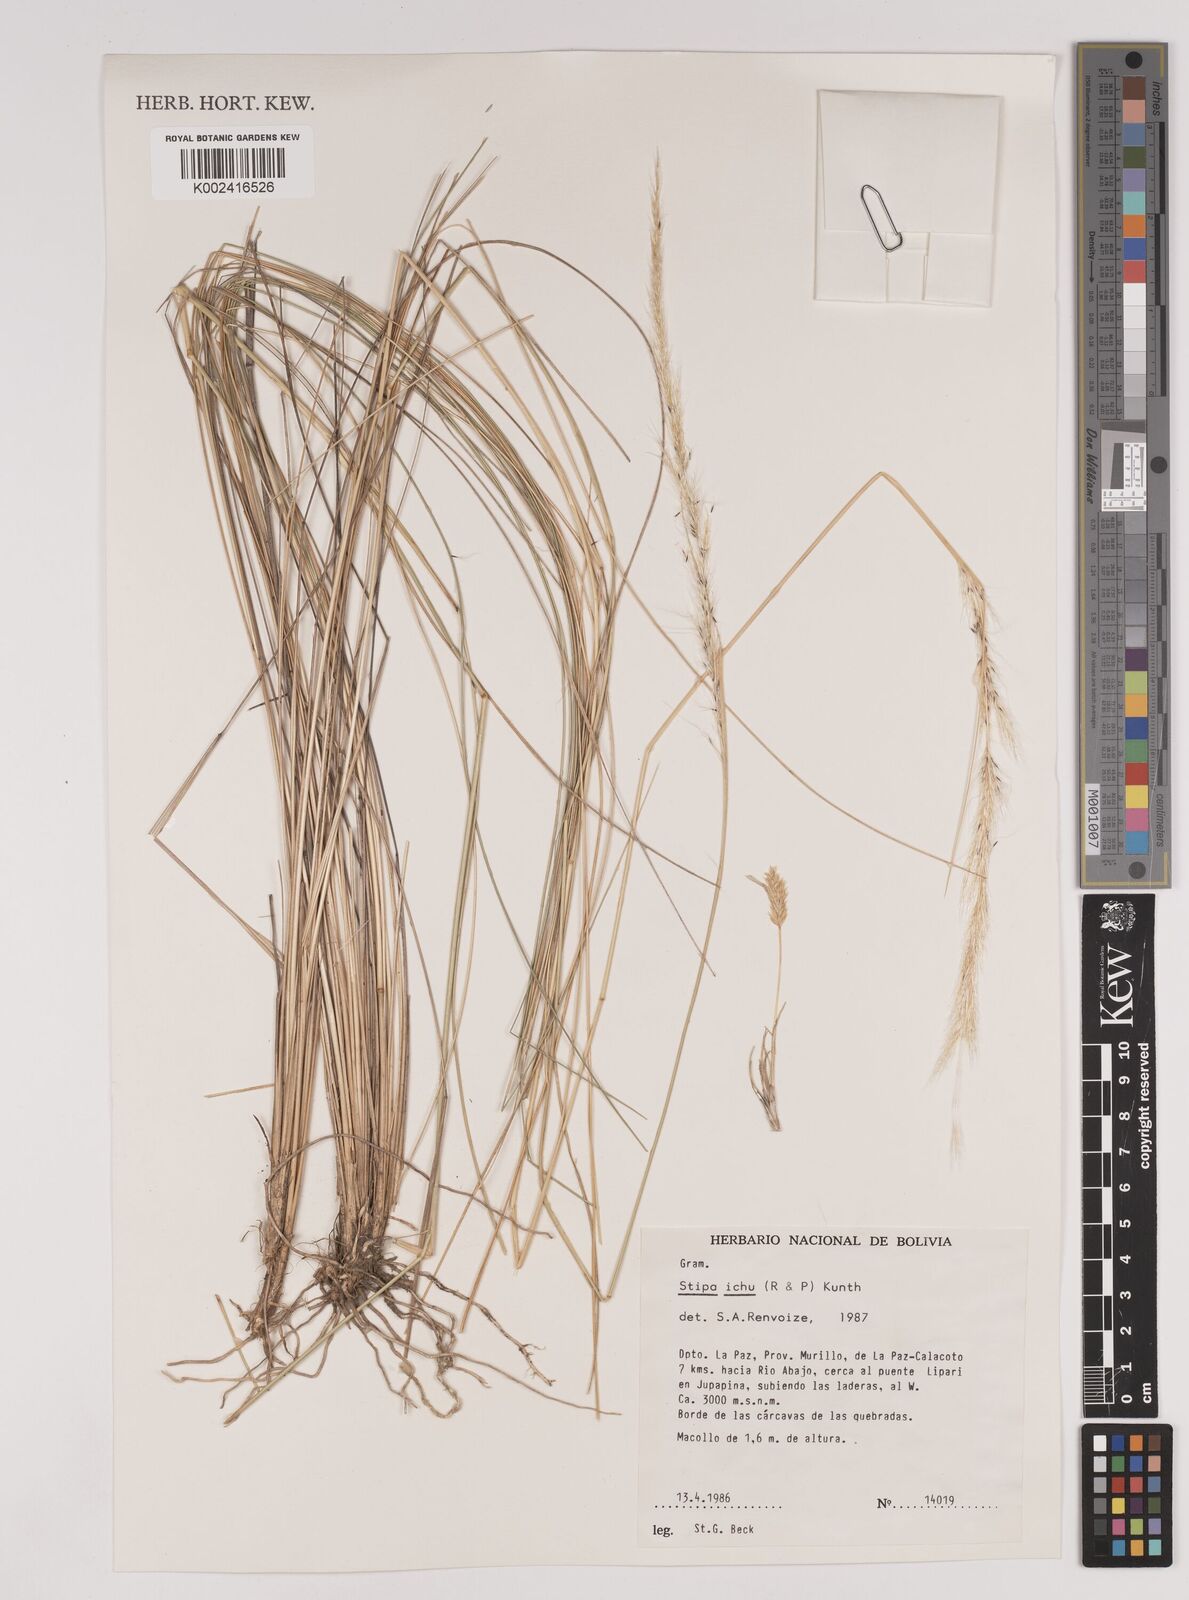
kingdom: Plantae
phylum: Tracheophyta
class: Liliopsida
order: Poales
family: Poaceae
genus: Jarava
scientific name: Jarava ichu
